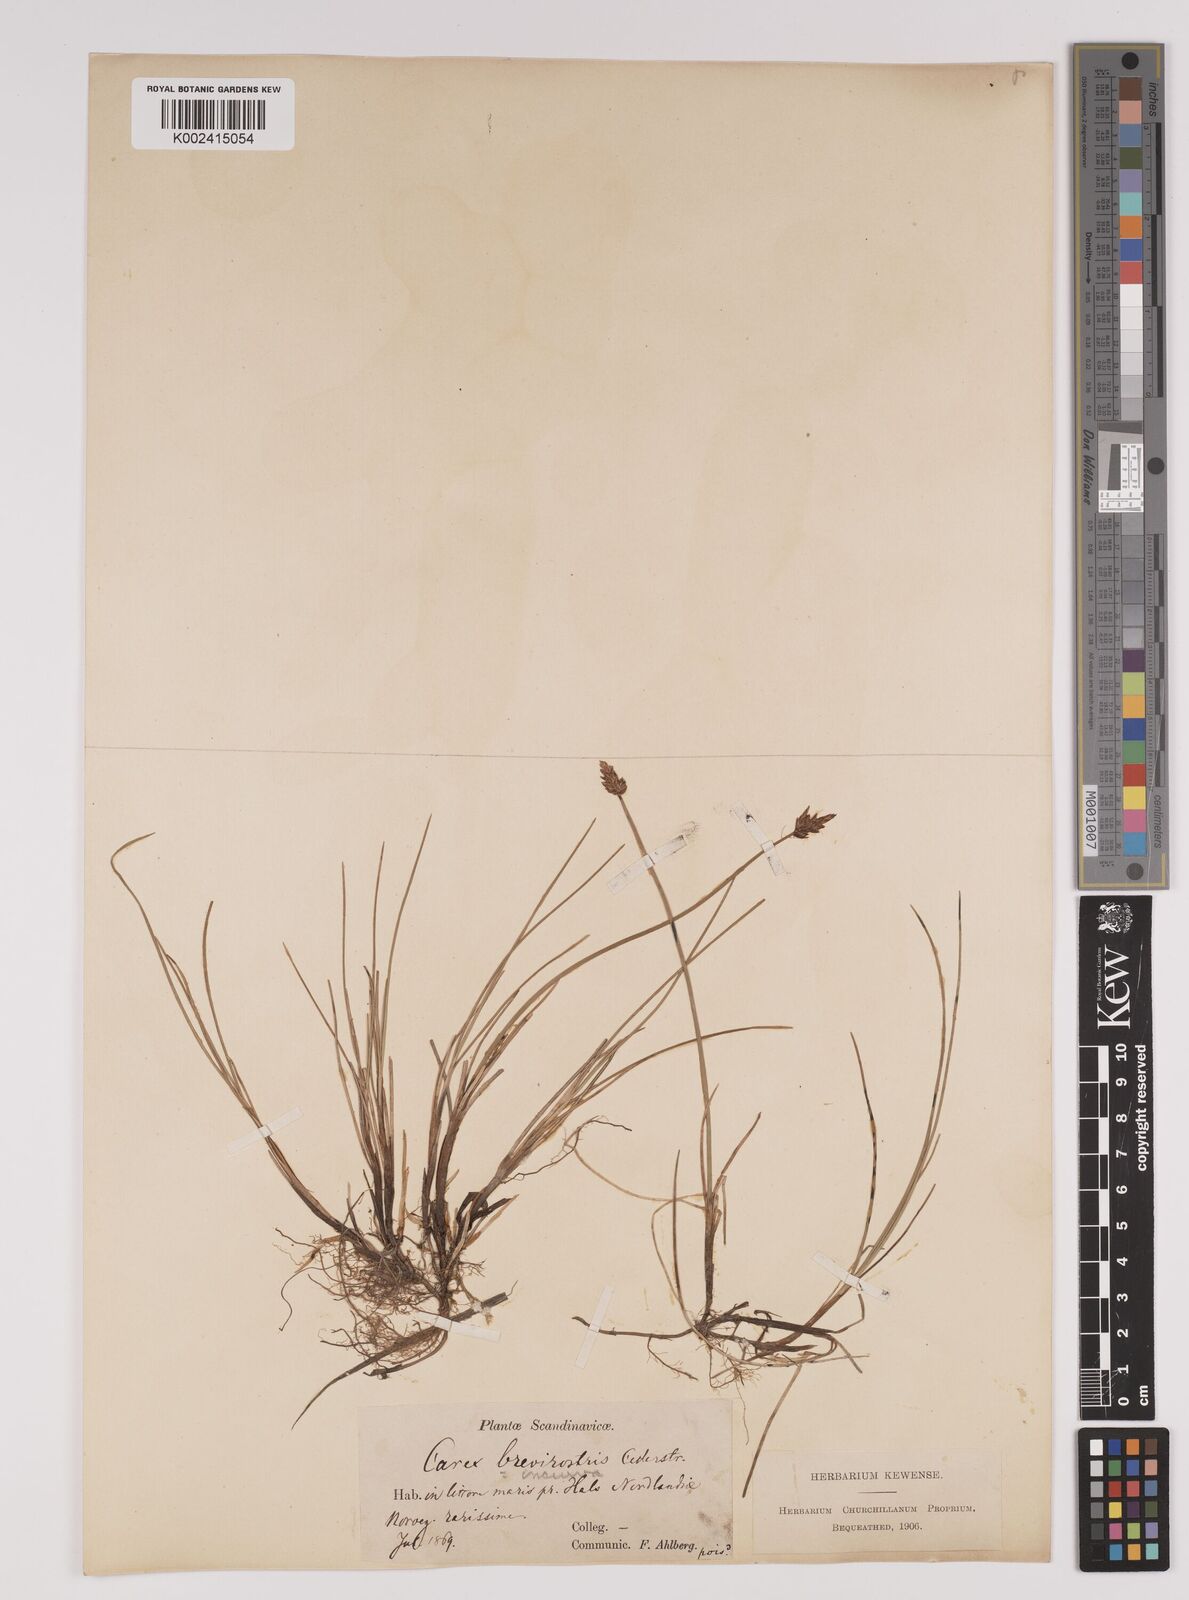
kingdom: Plantae
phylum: Tracheophyta
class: Liliopsida
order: Poales
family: Cyperaceae
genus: Carex
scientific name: Carex dioica
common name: Dioecious sedge
